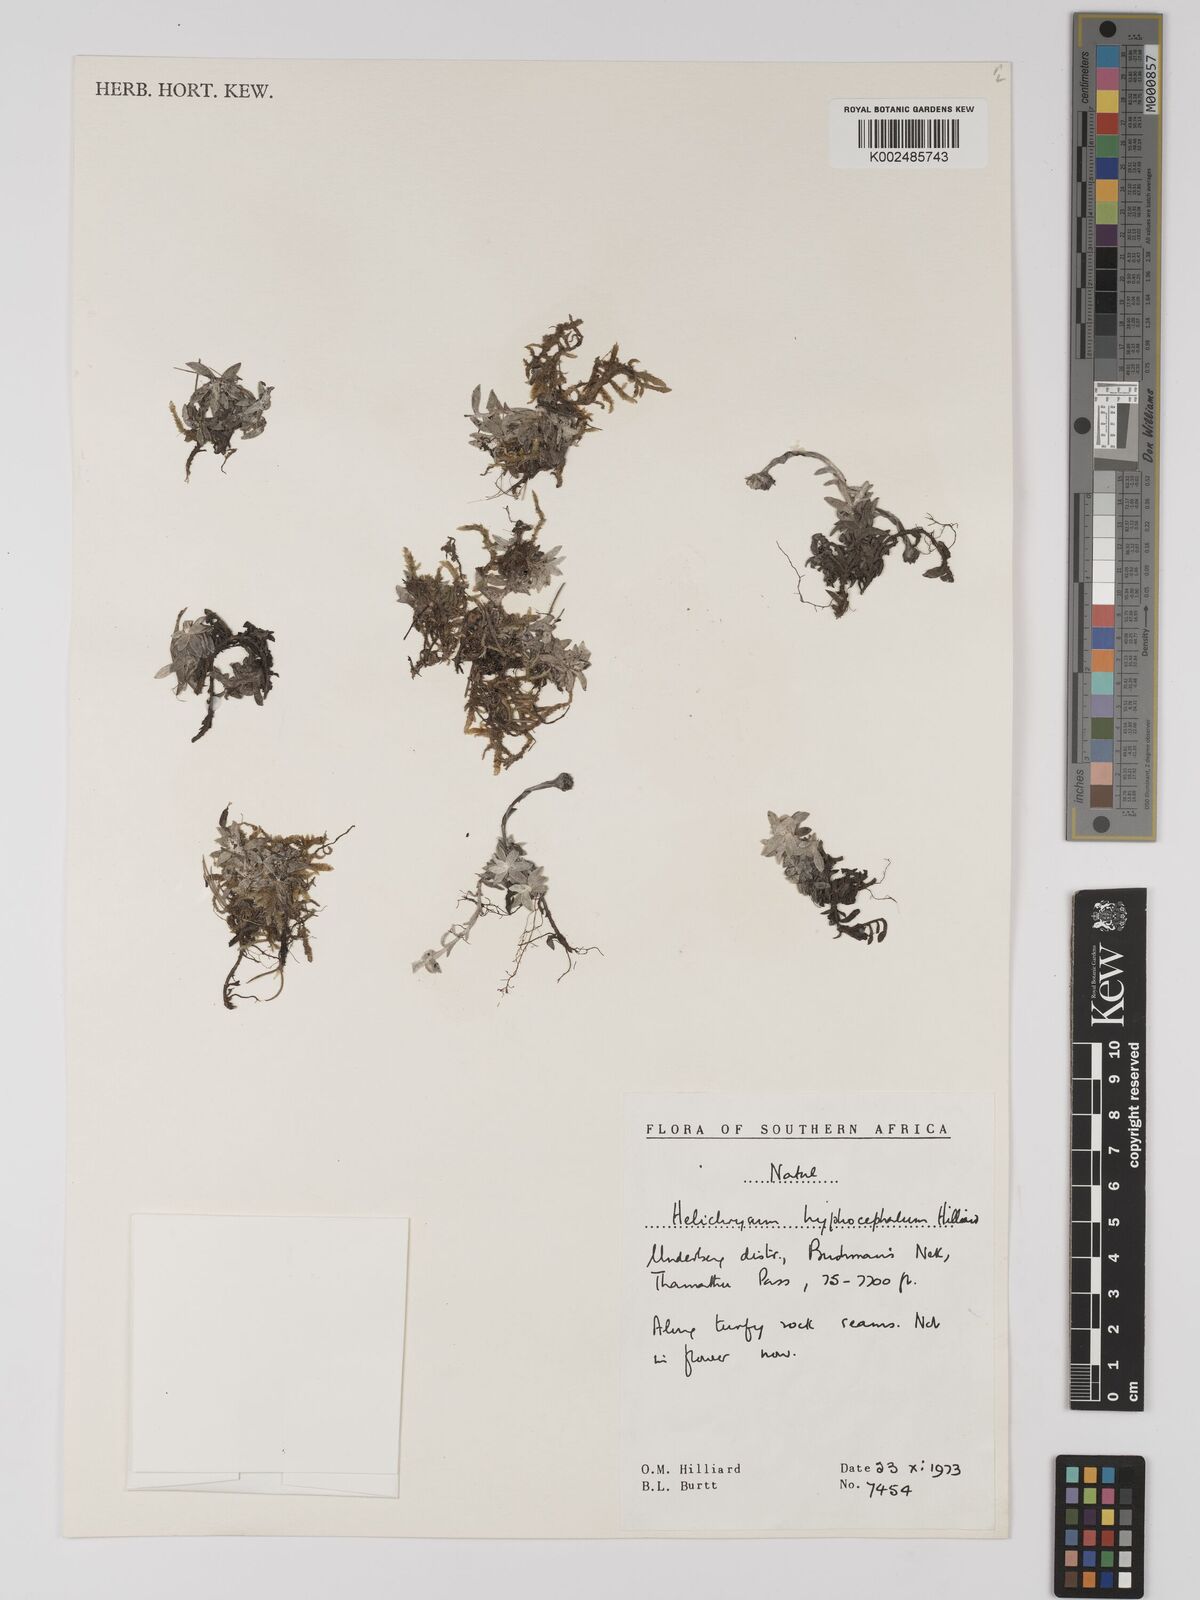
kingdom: Plantae
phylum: Tracheophyta
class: Magnoliopsida
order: Asterales
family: Asteraceae
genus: Helichrysum
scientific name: Helichrysum hyphocephalum
